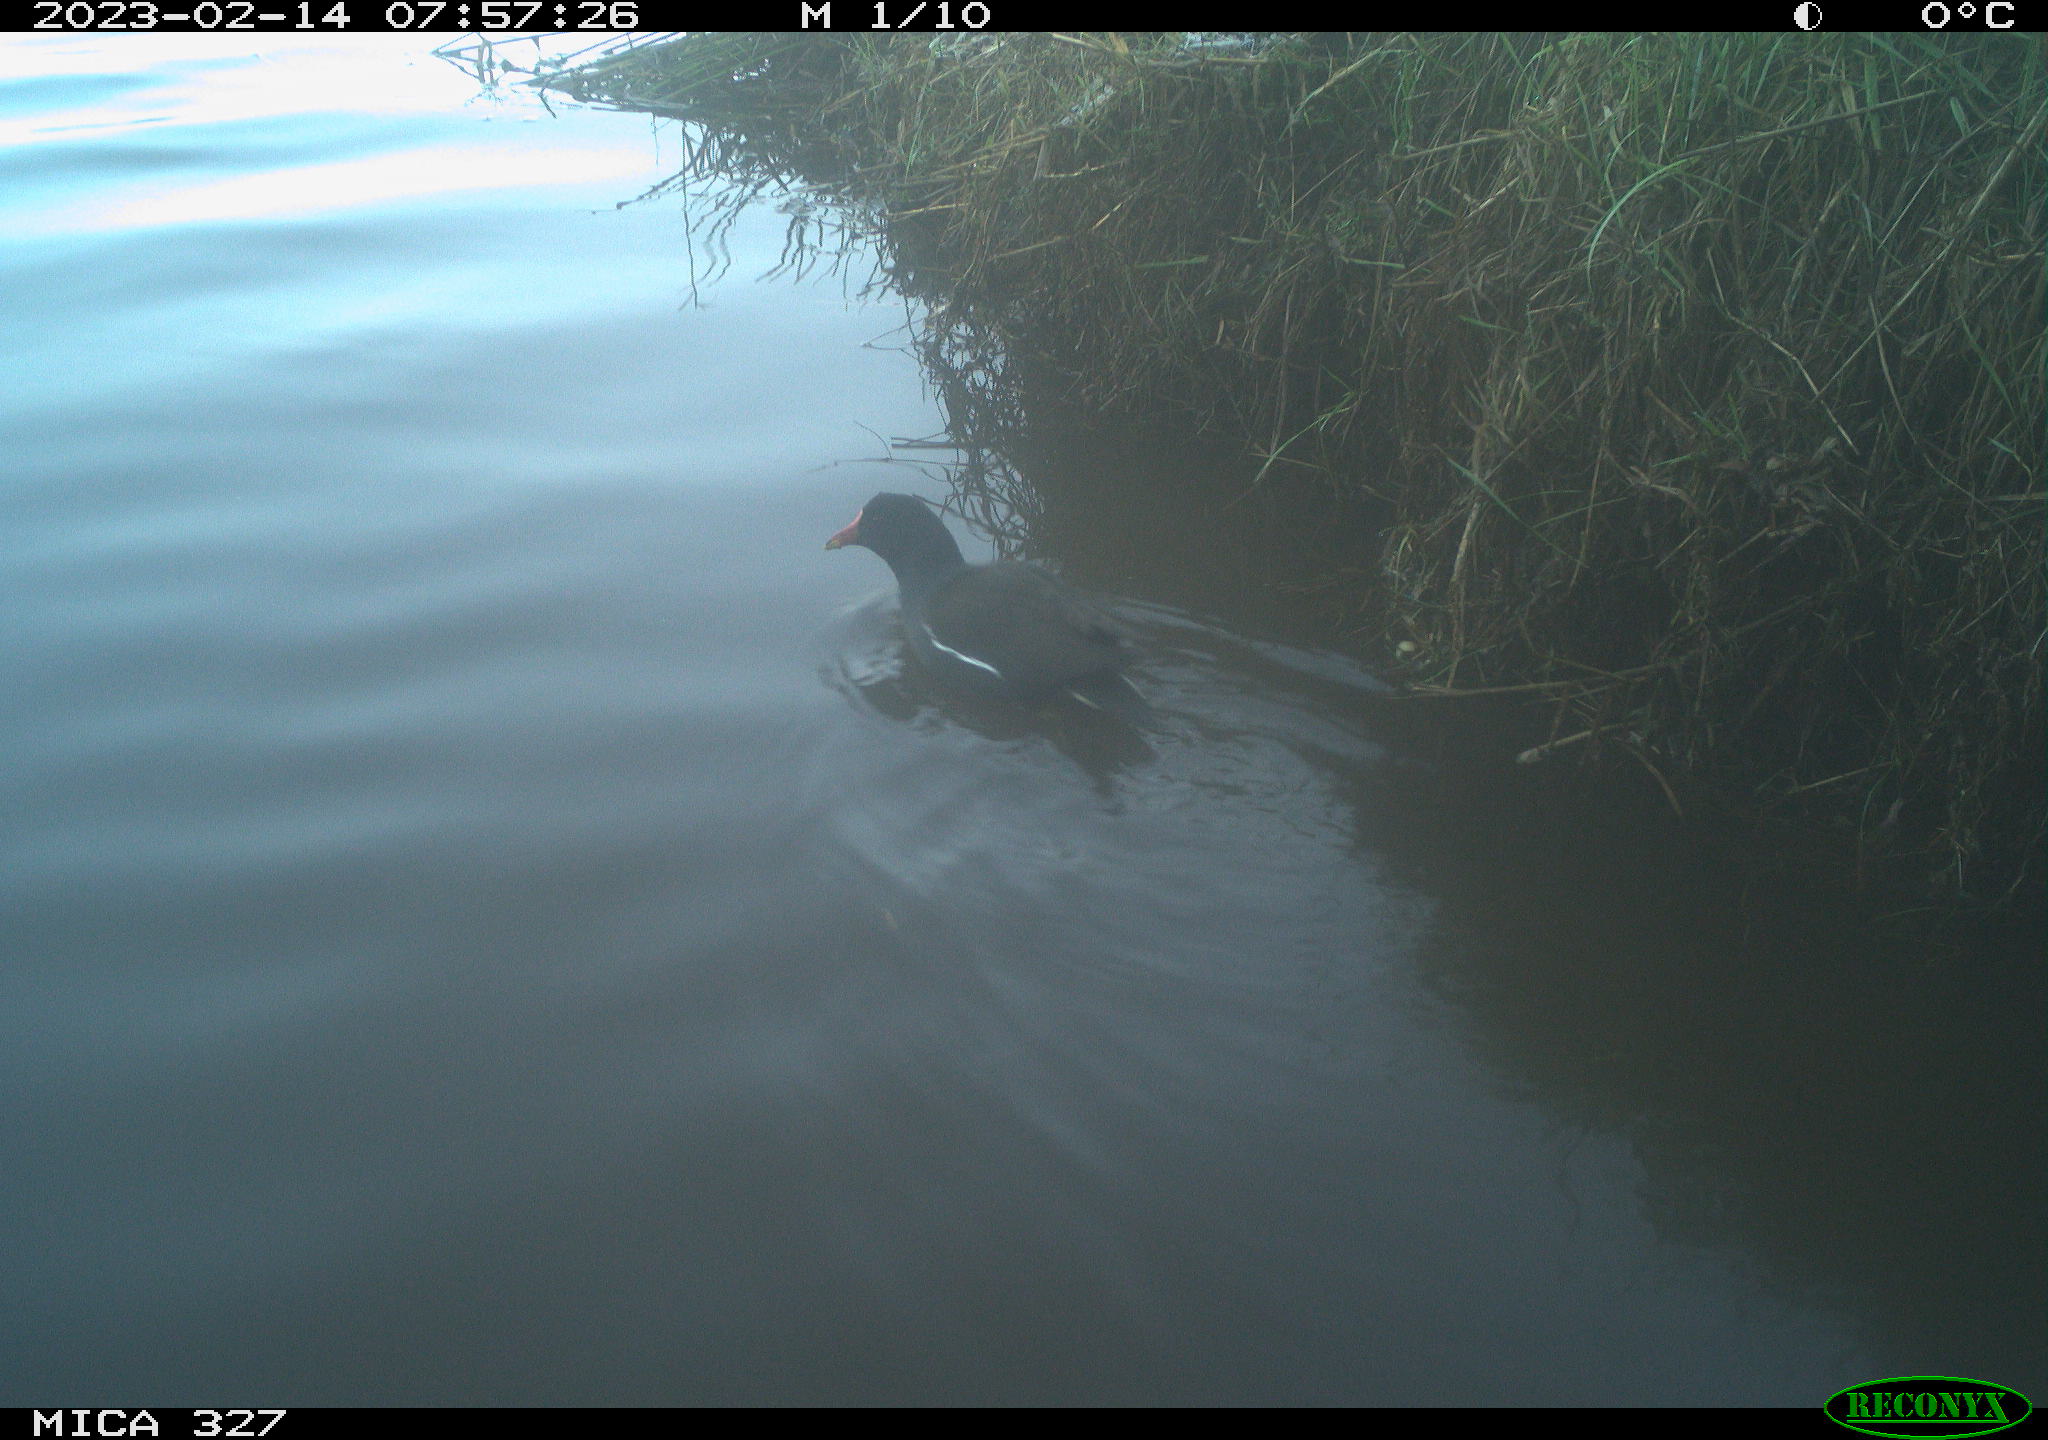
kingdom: Animalia
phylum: Chordata
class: Aves
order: Gruiformes
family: Rallidae
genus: Gallinula
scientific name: Gallinula chloropus
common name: Common moorhen
